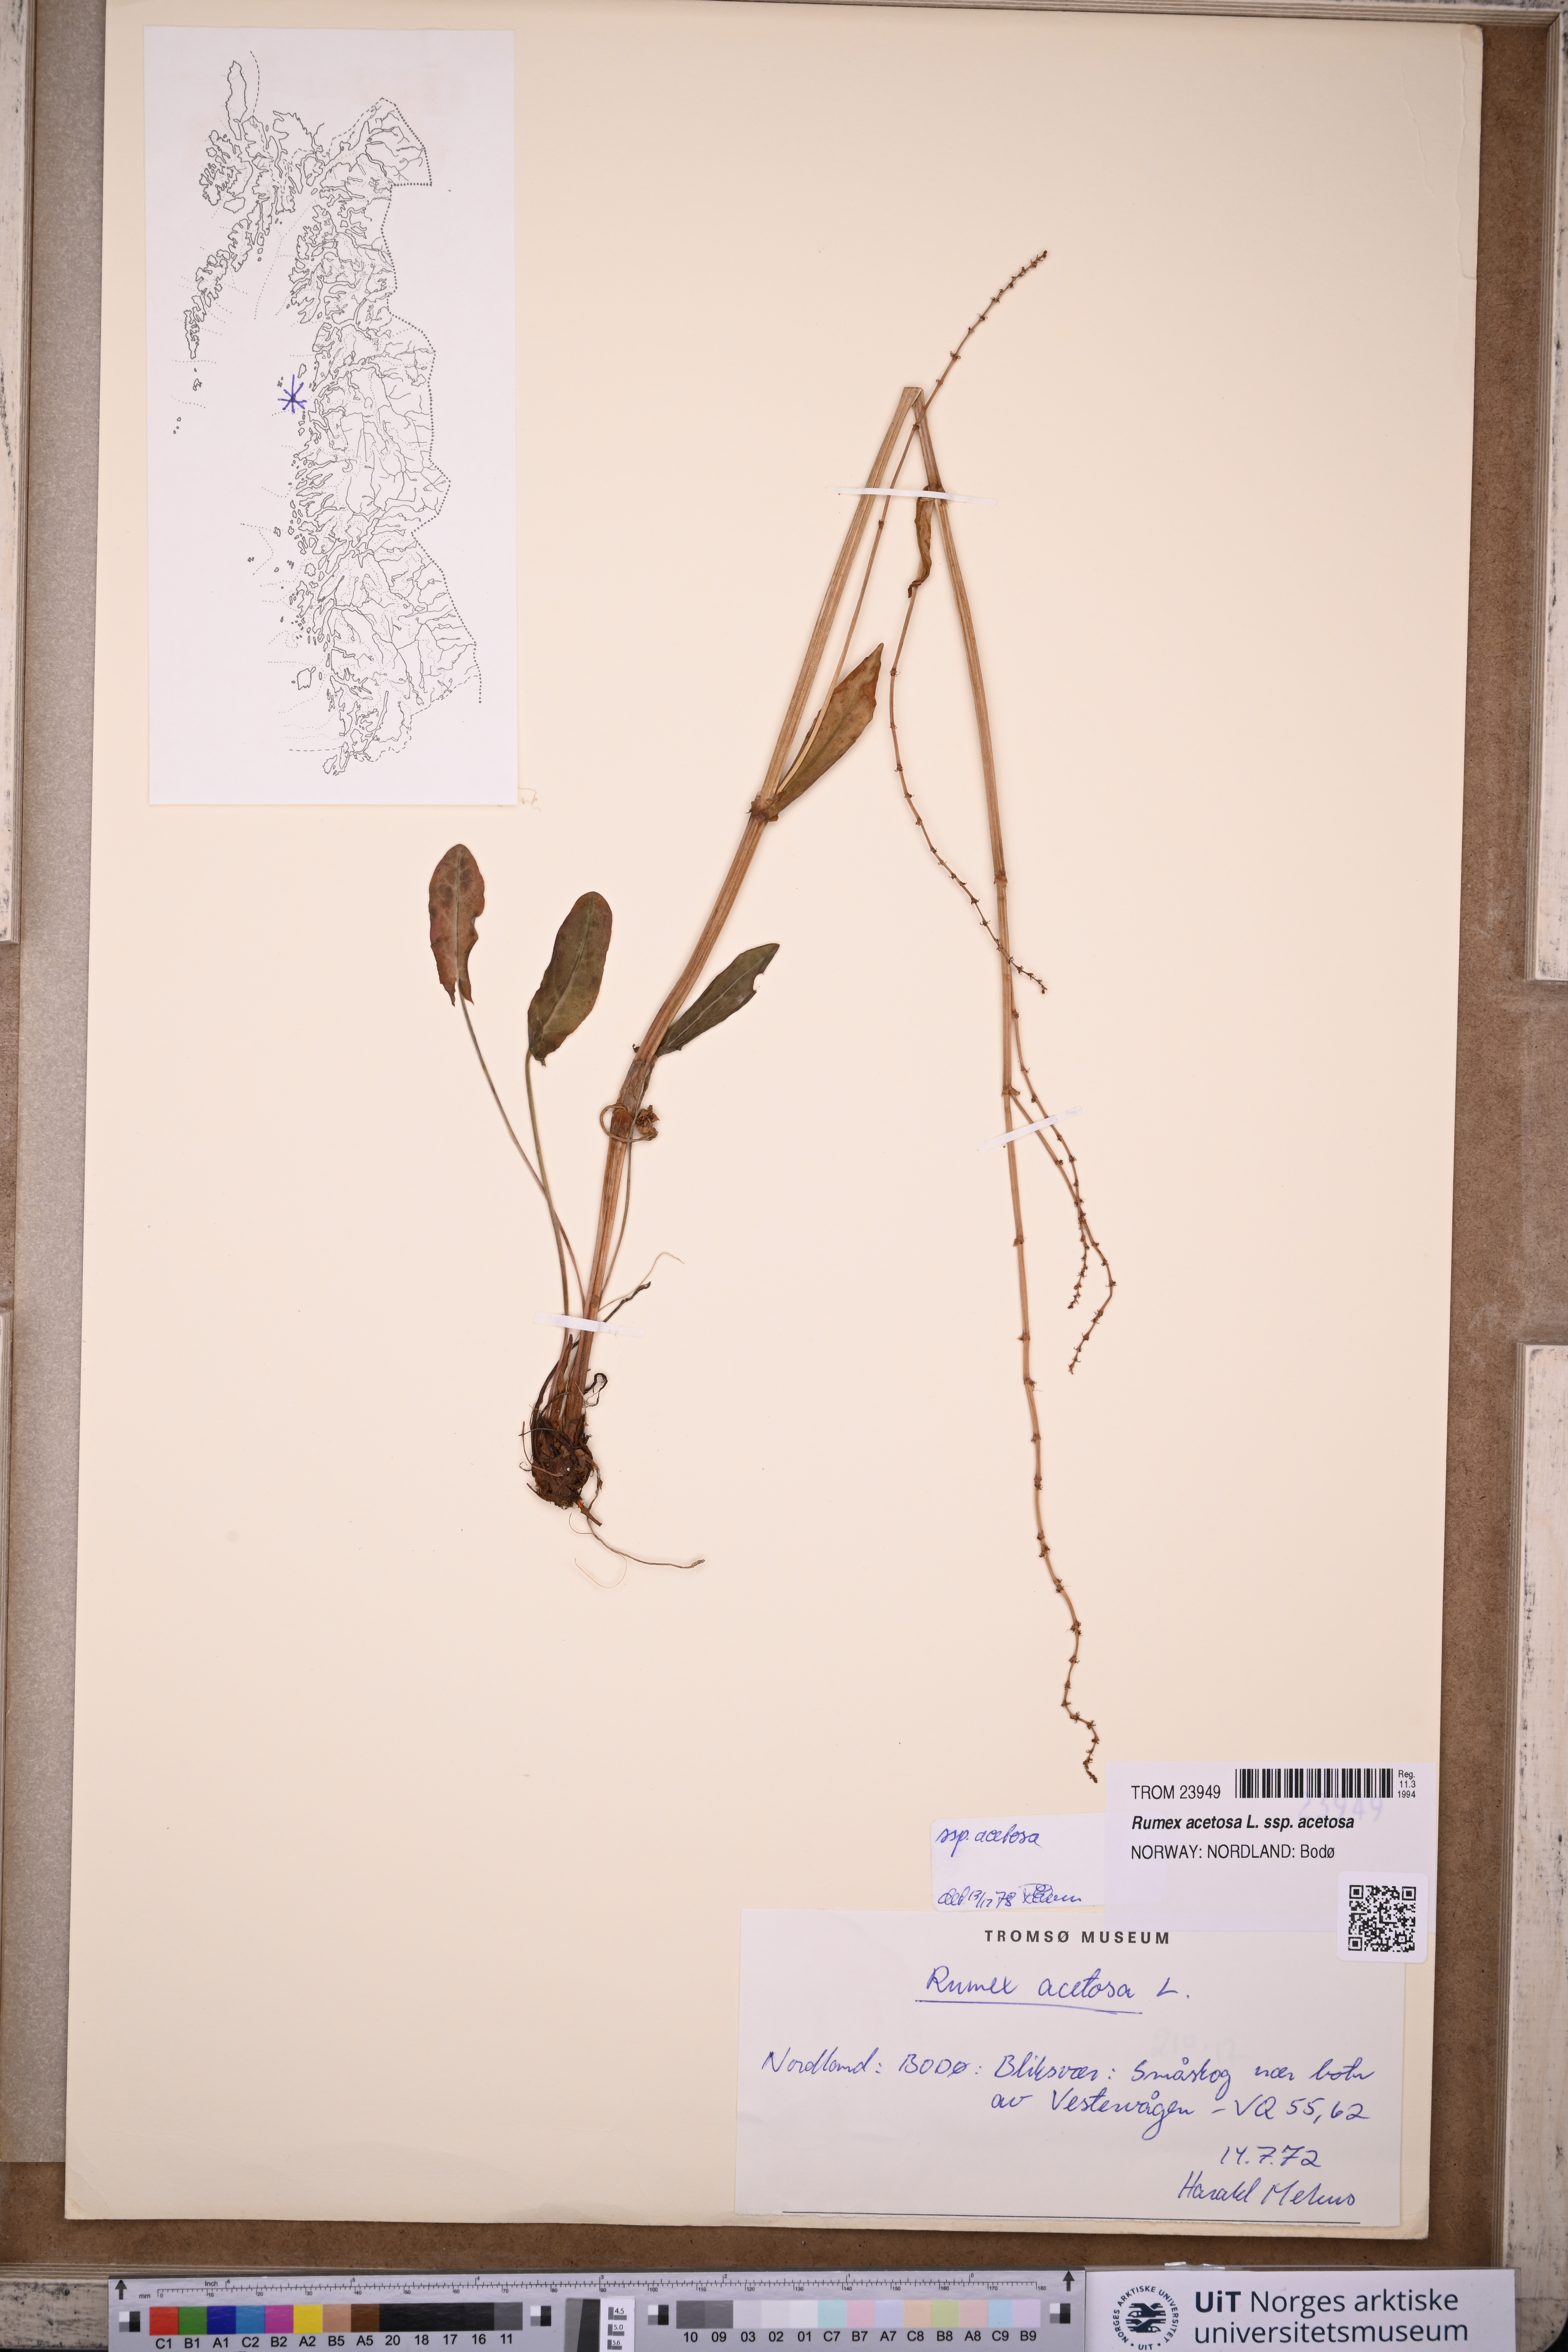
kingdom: Plantae
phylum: Tracheophyta
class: Magnoliopsida
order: Caryophyllales
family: Polygonaceae
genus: Rumex
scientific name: Rumex acetosa
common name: Garden sorrel
